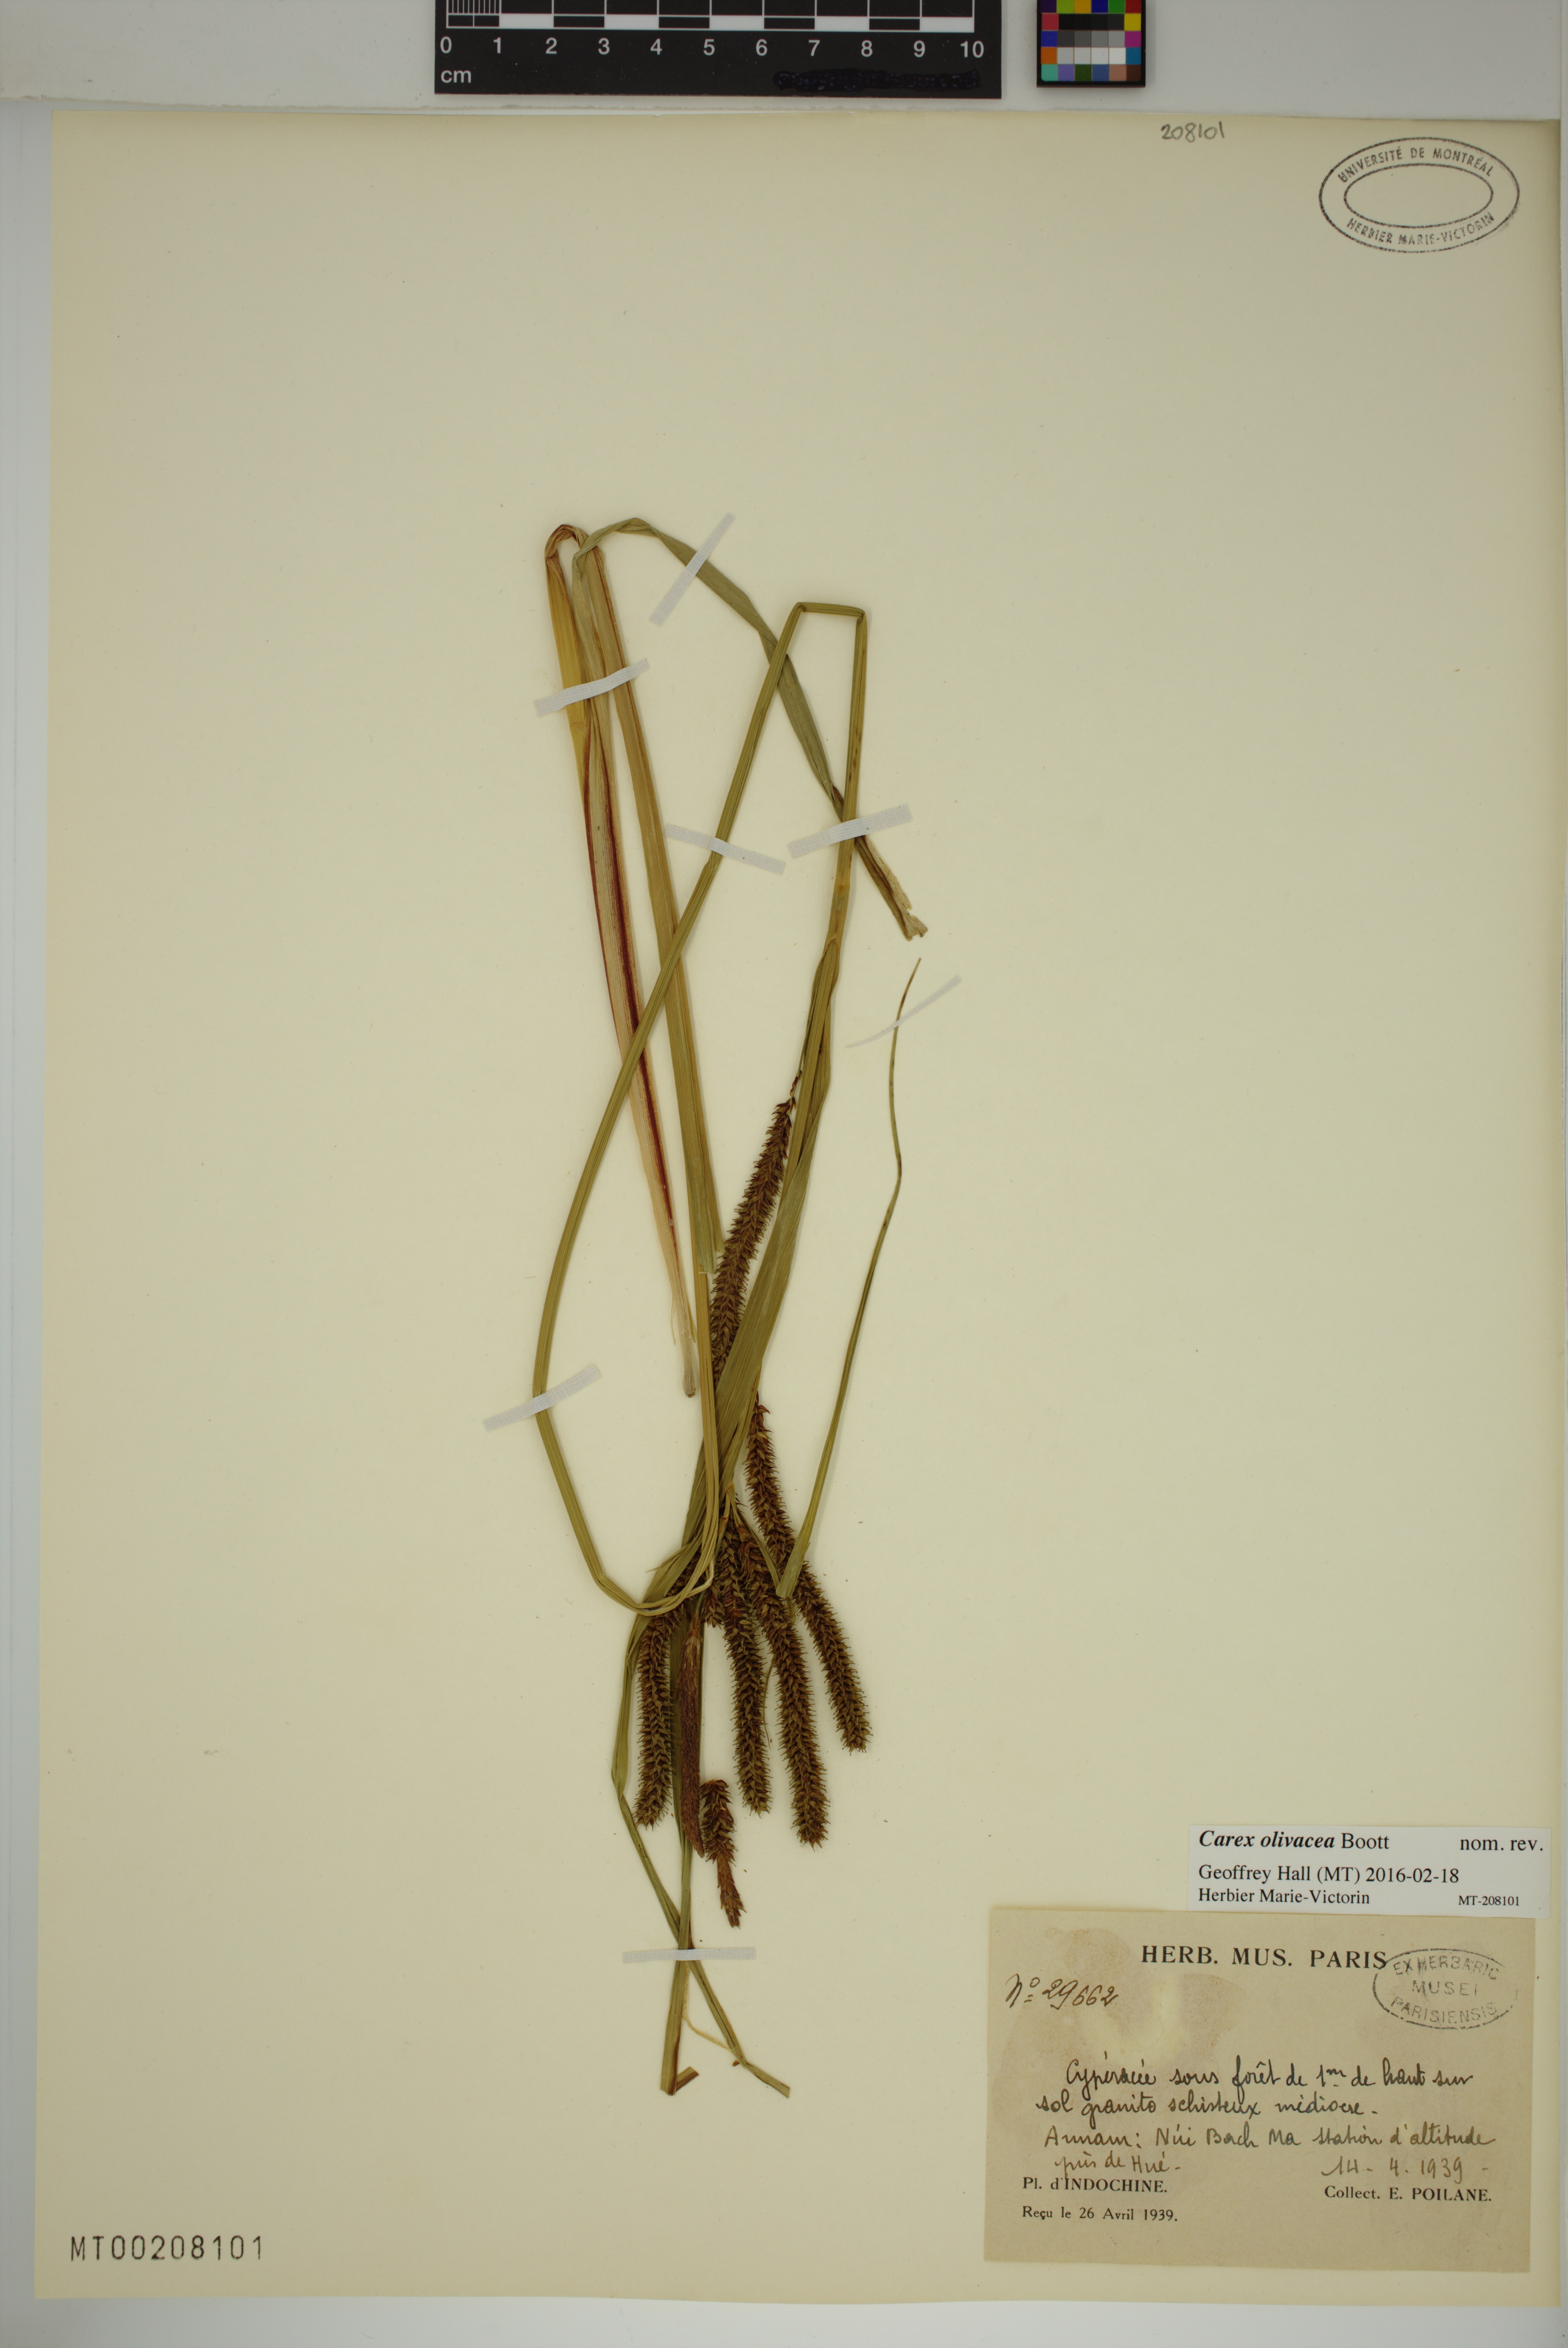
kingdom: Plantae
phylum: Tracheophyta
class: Liliopsida
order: Poales
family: Cyperaceae
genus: Carex
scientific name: Carex olivacea
